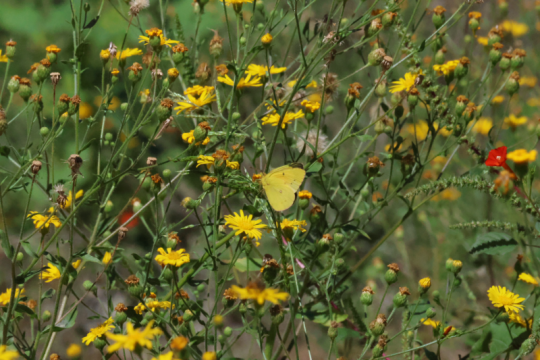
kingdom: Animalia
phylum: Arthropoda
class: Insecta
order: Lepidoptera
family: Pieridae
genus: Zerene
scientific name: Zerene cesonia
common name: Southern Dogface
